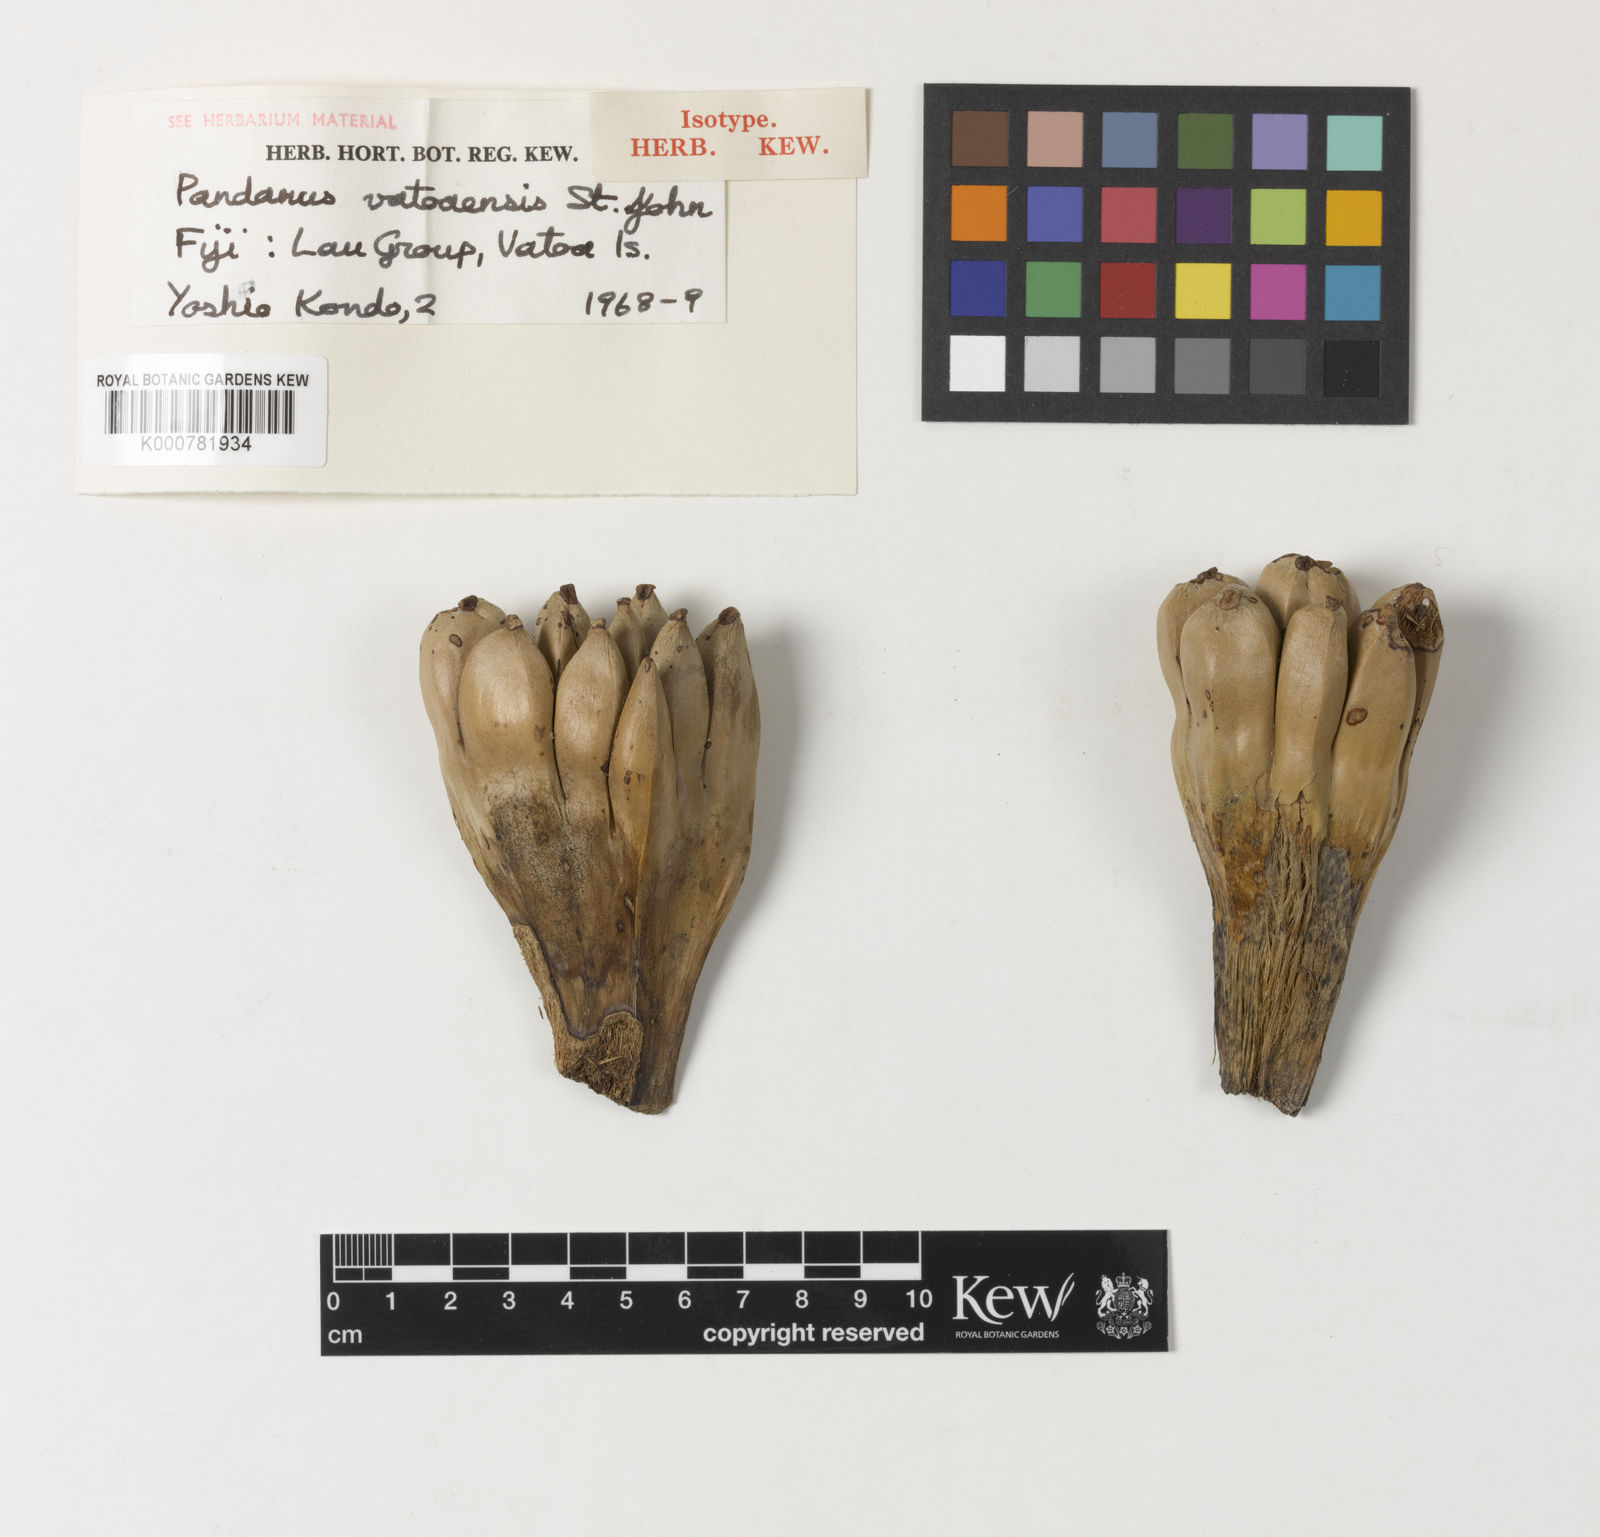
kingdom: Plantae
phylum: Tracheophyta
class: Liliopsida
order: Pandanales
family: Pandanaceae
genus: Pandanus
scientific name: Pandanus moalaensis
